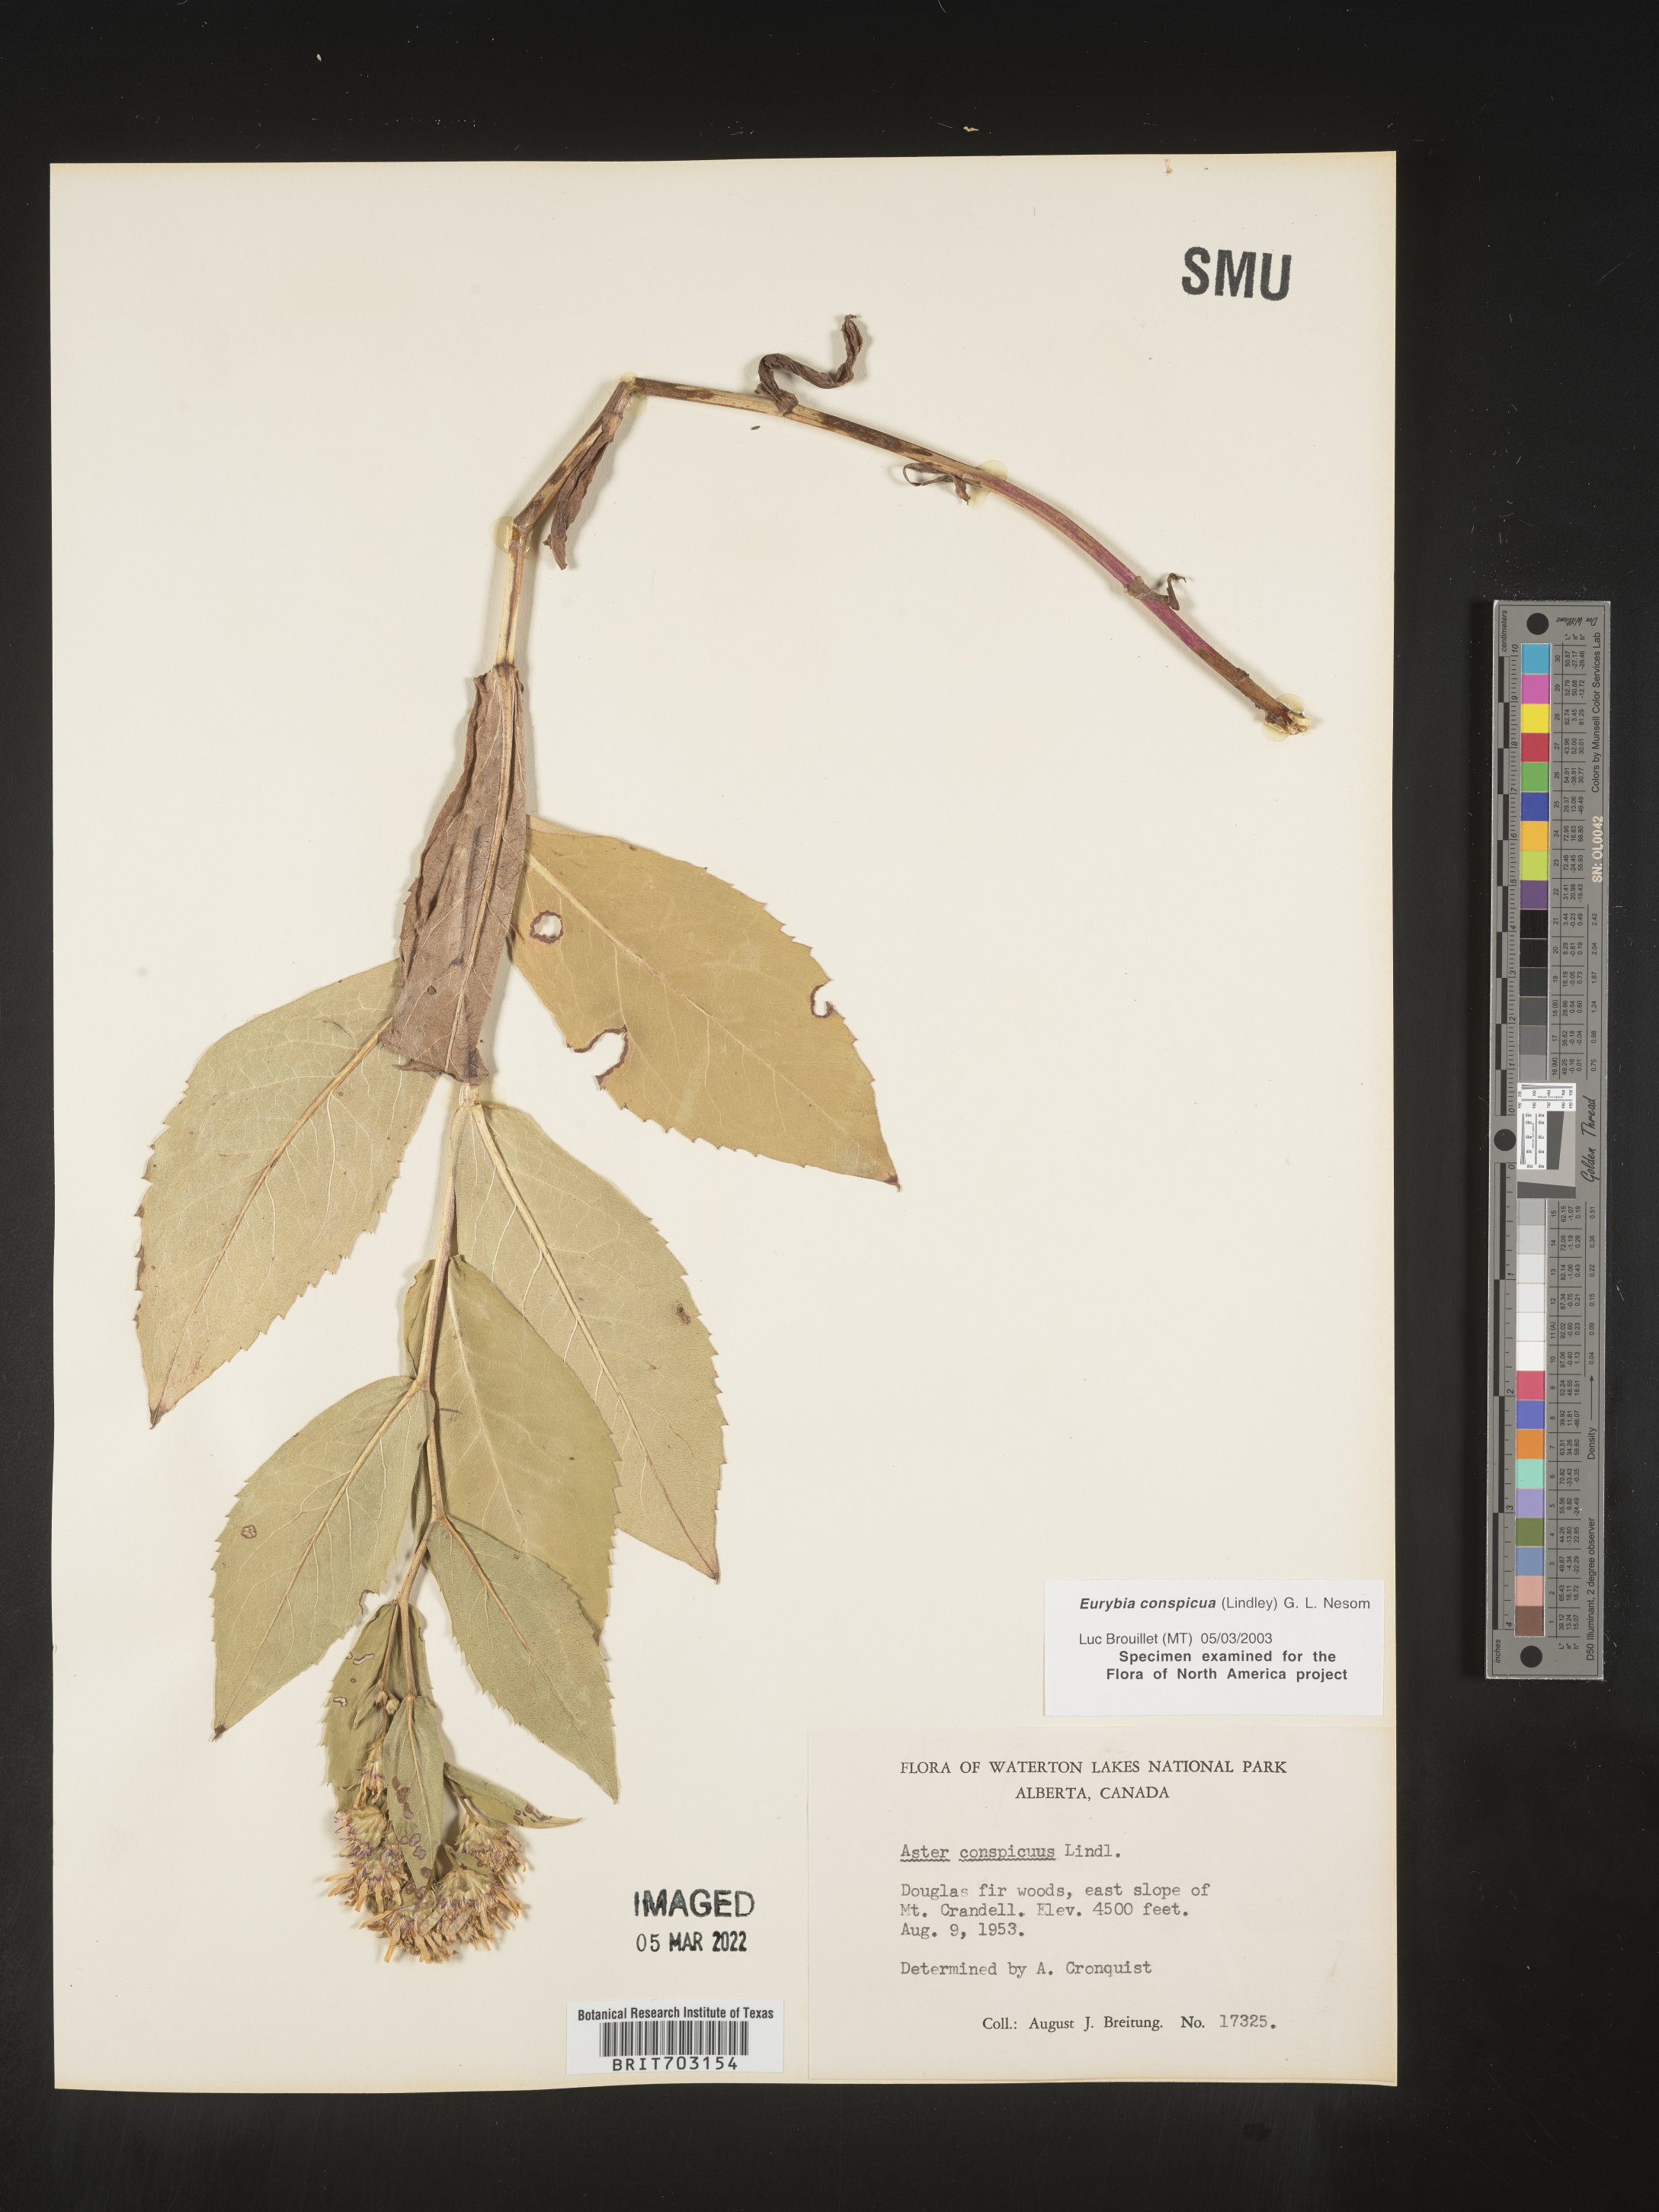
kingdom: Plantae
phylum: Tracheophyta
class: Magnoliopsida
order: Asterales
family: Asteraceae
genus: Eurybia
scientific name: Eurybia conspicua
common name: Showy aster
